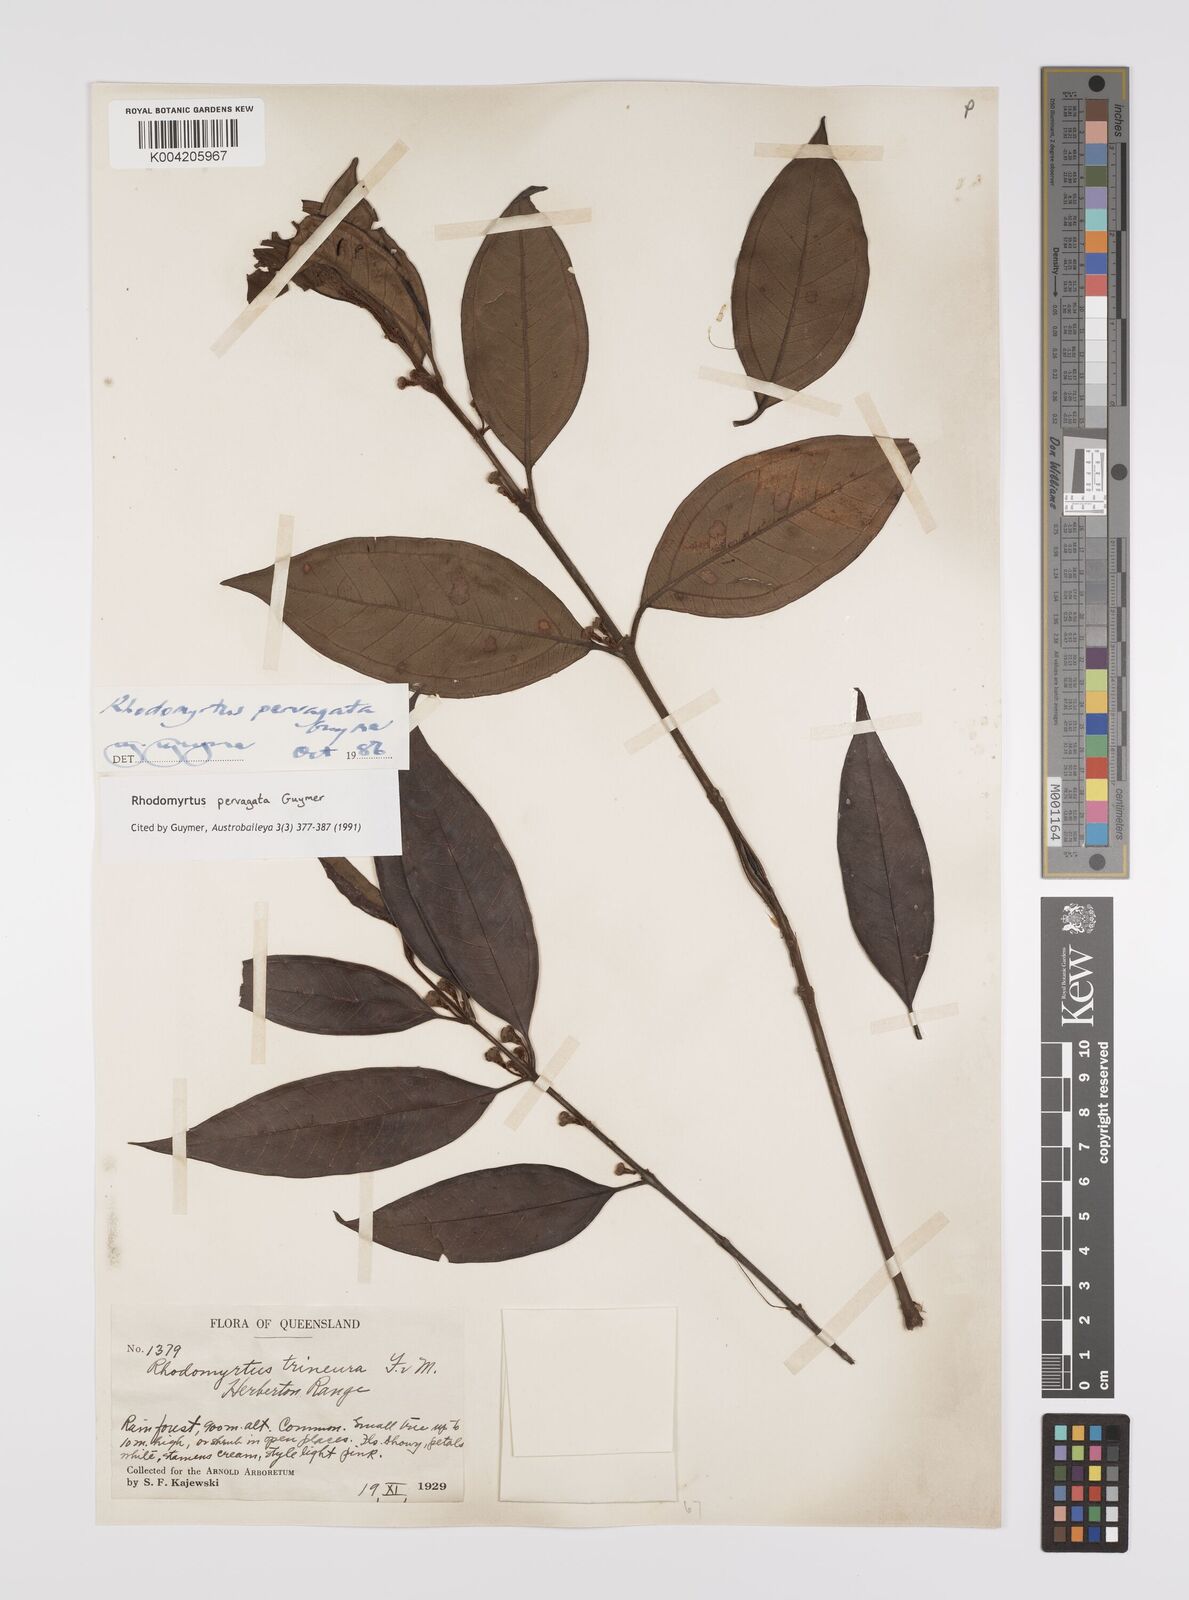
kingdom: Plantae
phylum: Tracheophyta
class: Magnoliopsida
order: Myrtales
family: Myrtaceae
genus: Rhodomyrtus
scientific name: Rhodomyrtus pervagata
